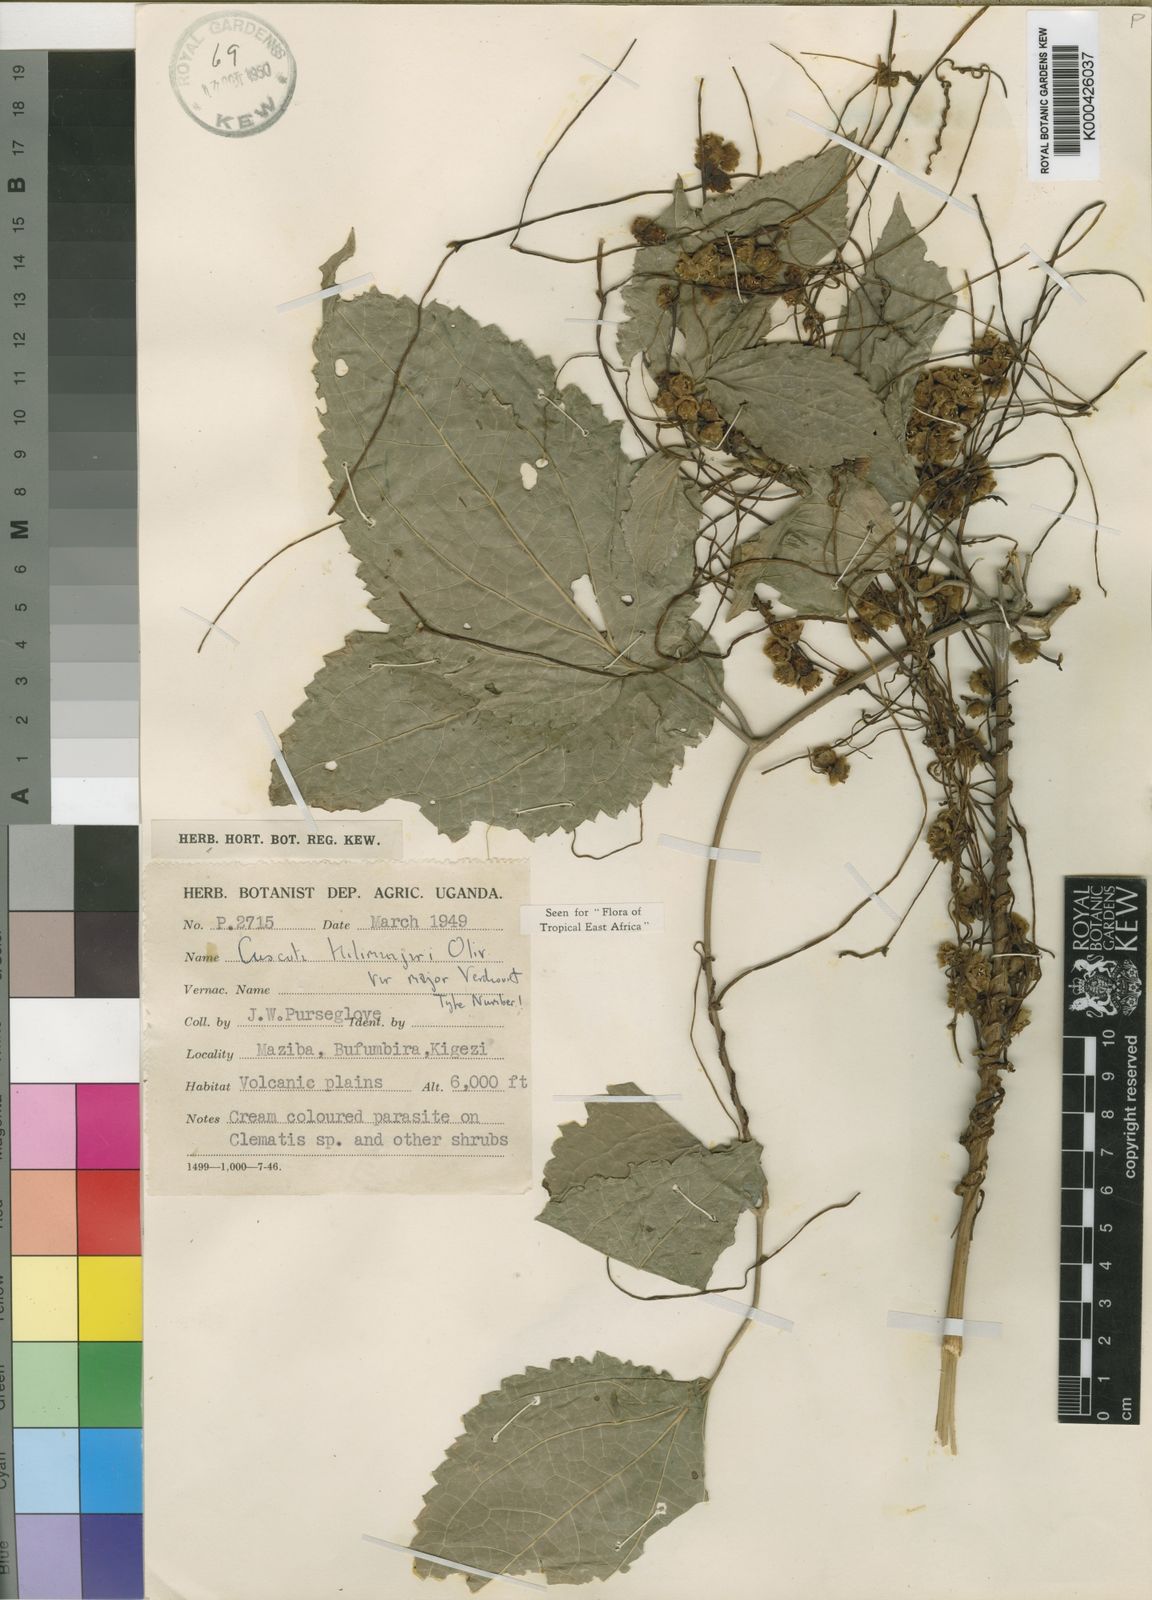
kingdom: Plantae
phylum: Tracheophyta
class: Magnoliopsida
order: Solanales
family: Convolvulaceae
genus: Cuscuta
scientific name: Cuscuta kilimanjari
